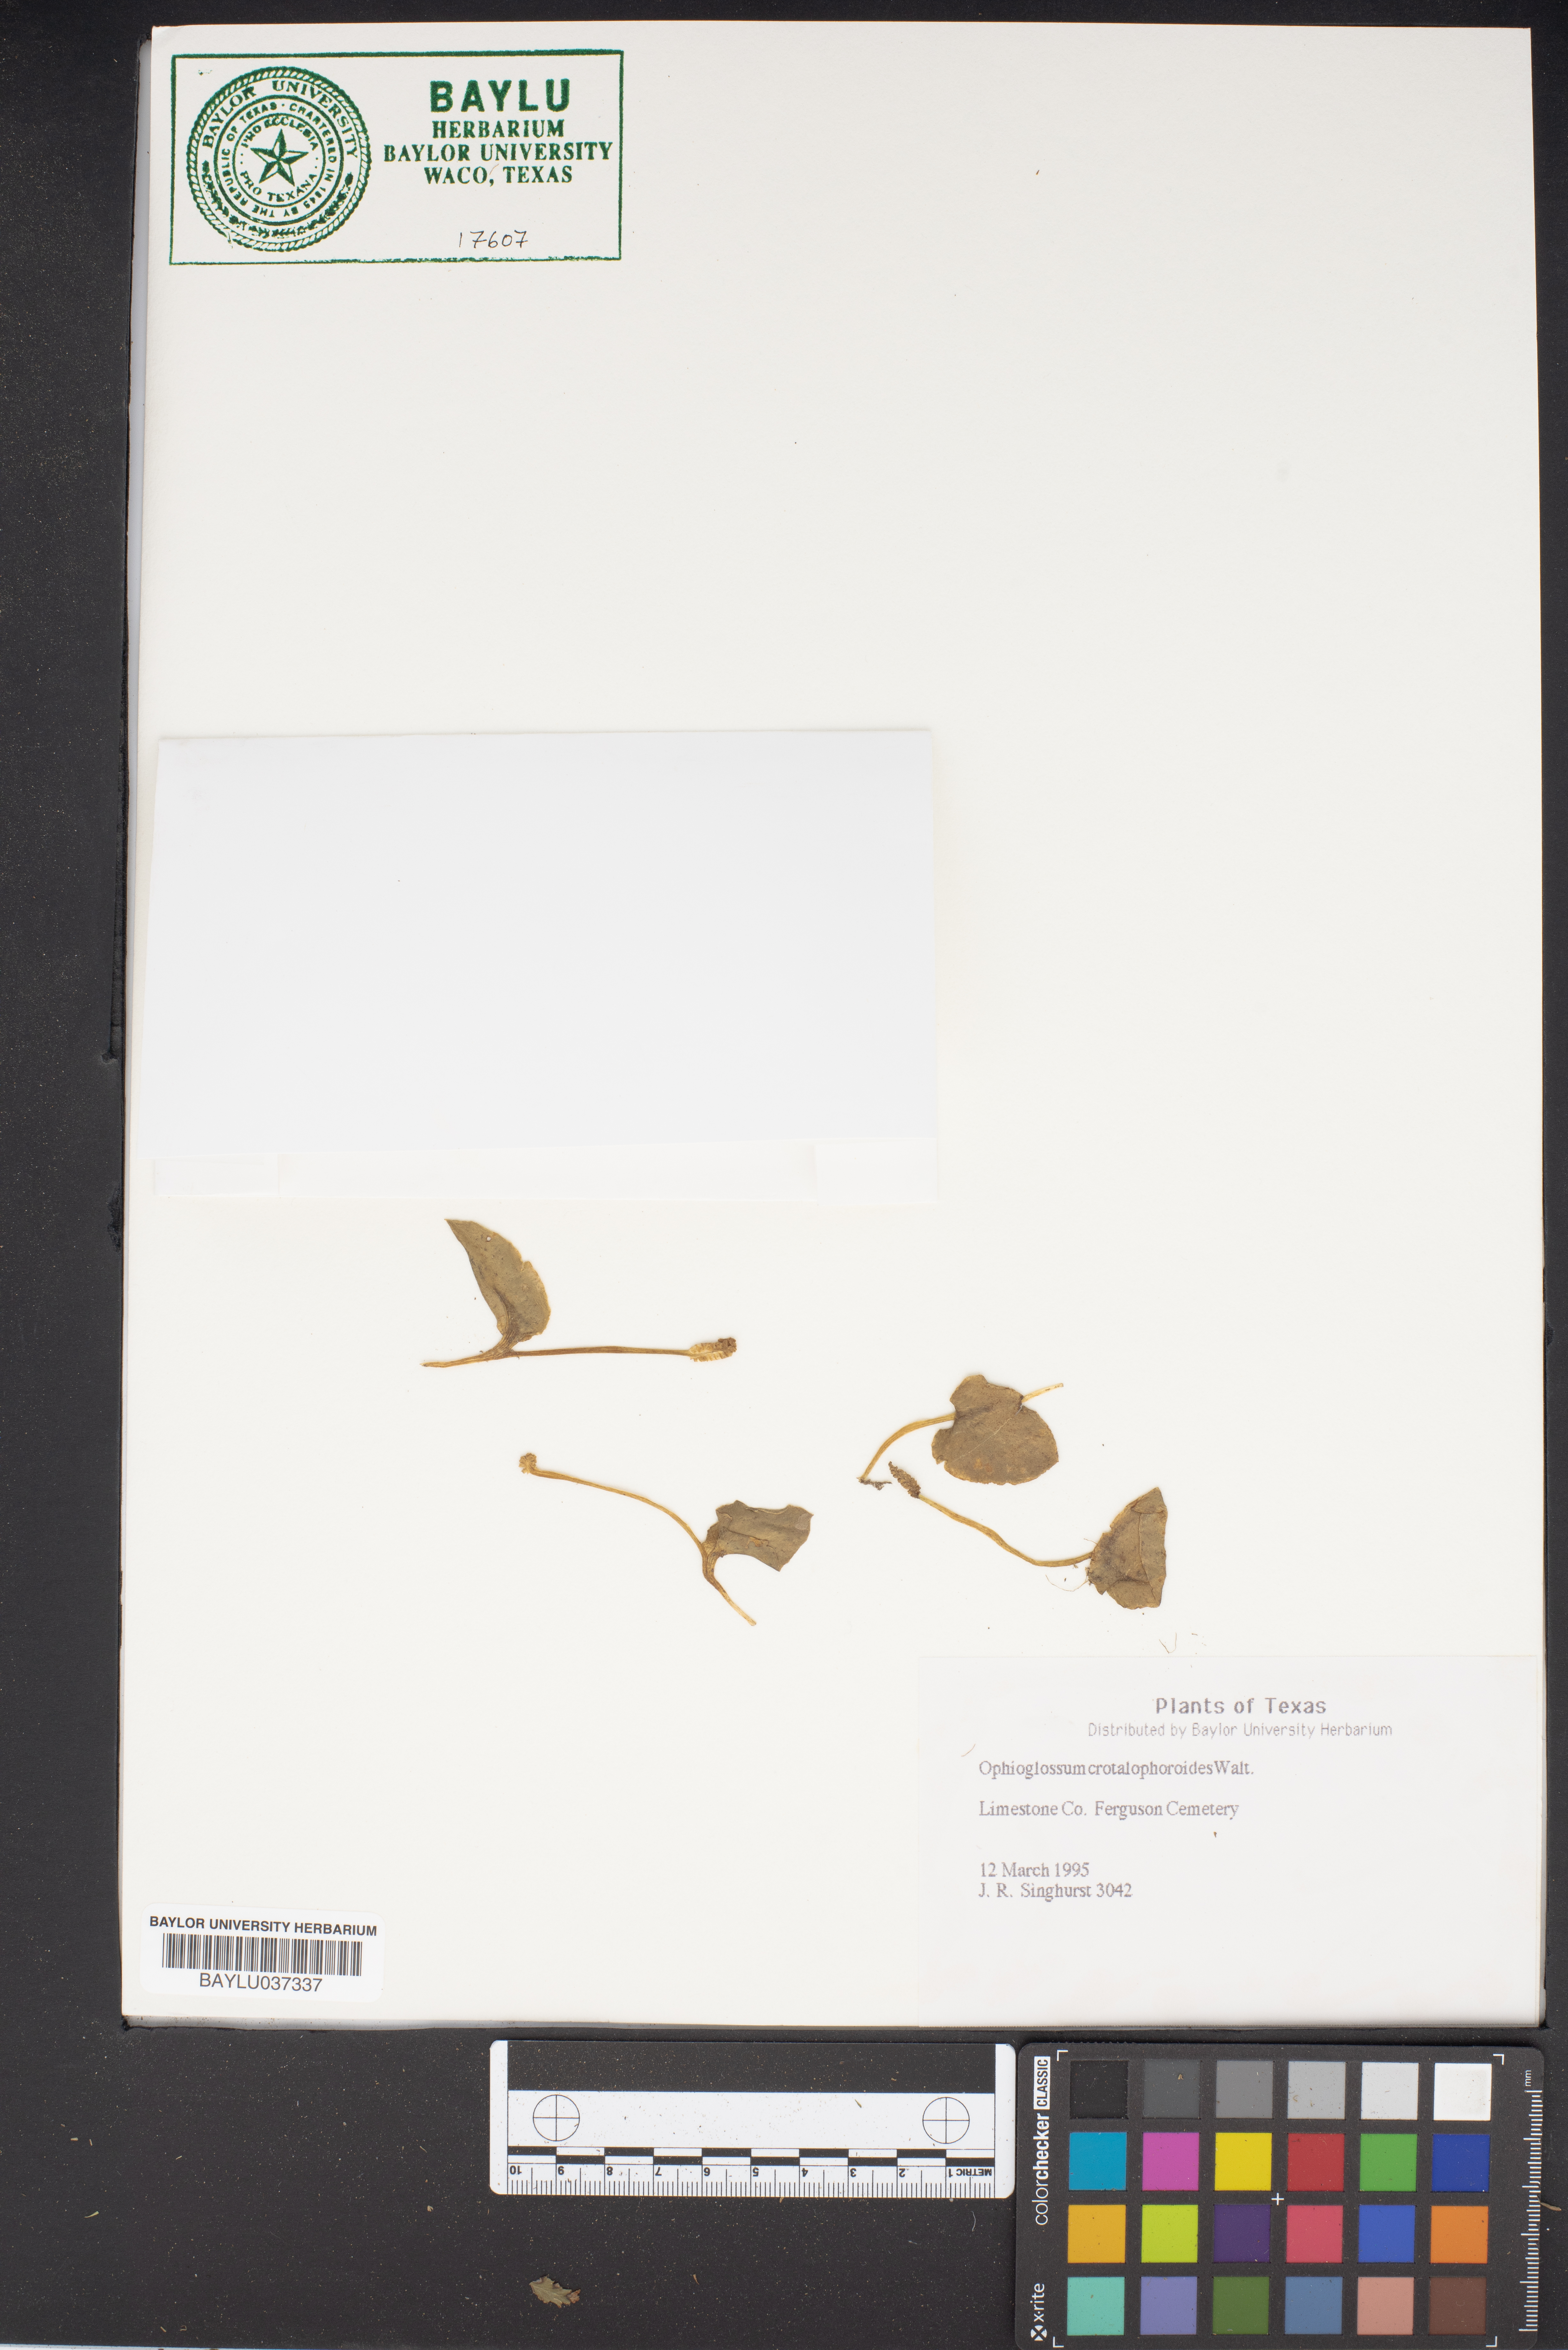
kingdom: Plantae
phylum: Tracheophyta
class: Polypodiopsida
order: Ophioglossales
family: Ophioglossaceae
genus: Ophioglossum
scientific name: Ophioglossum crotalophoroides
